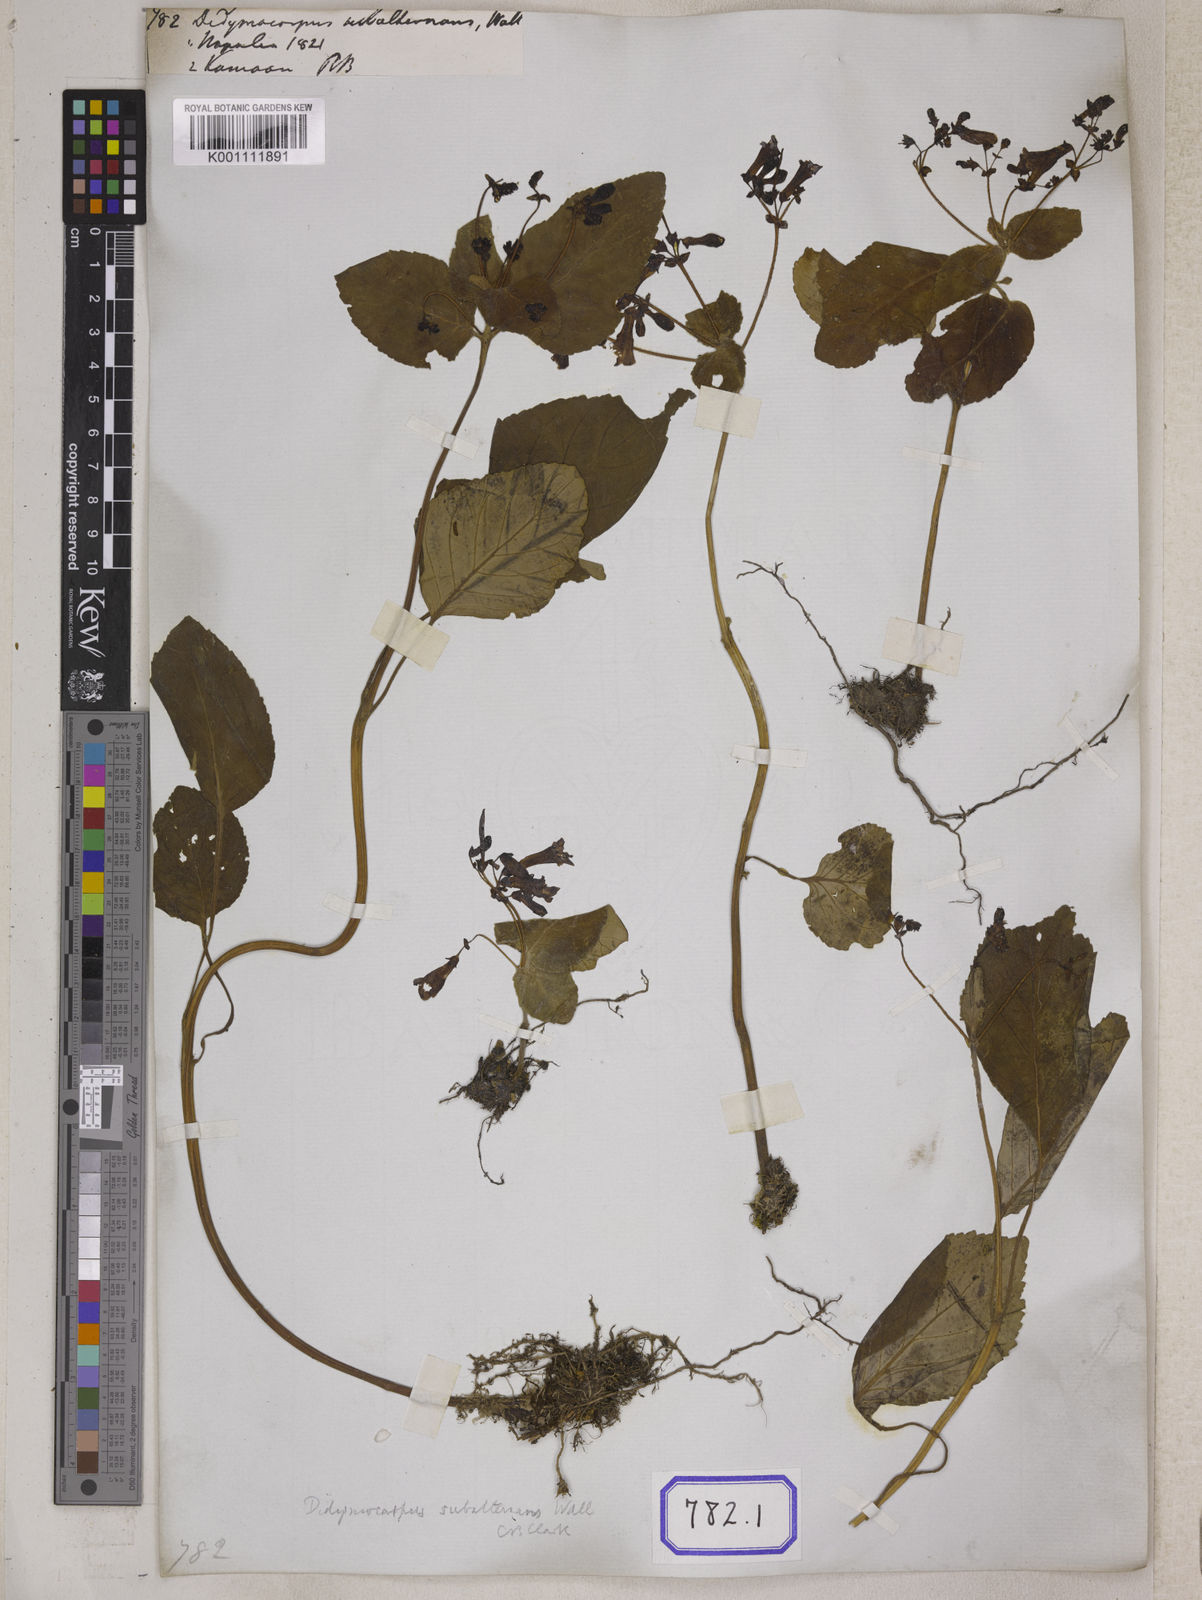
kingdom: Plantae
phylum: Tracheophyta
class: Magnoliopsida
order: Lamiales
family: Gesneriaceae
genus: Didymocarpus
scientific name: Didymocarpus
